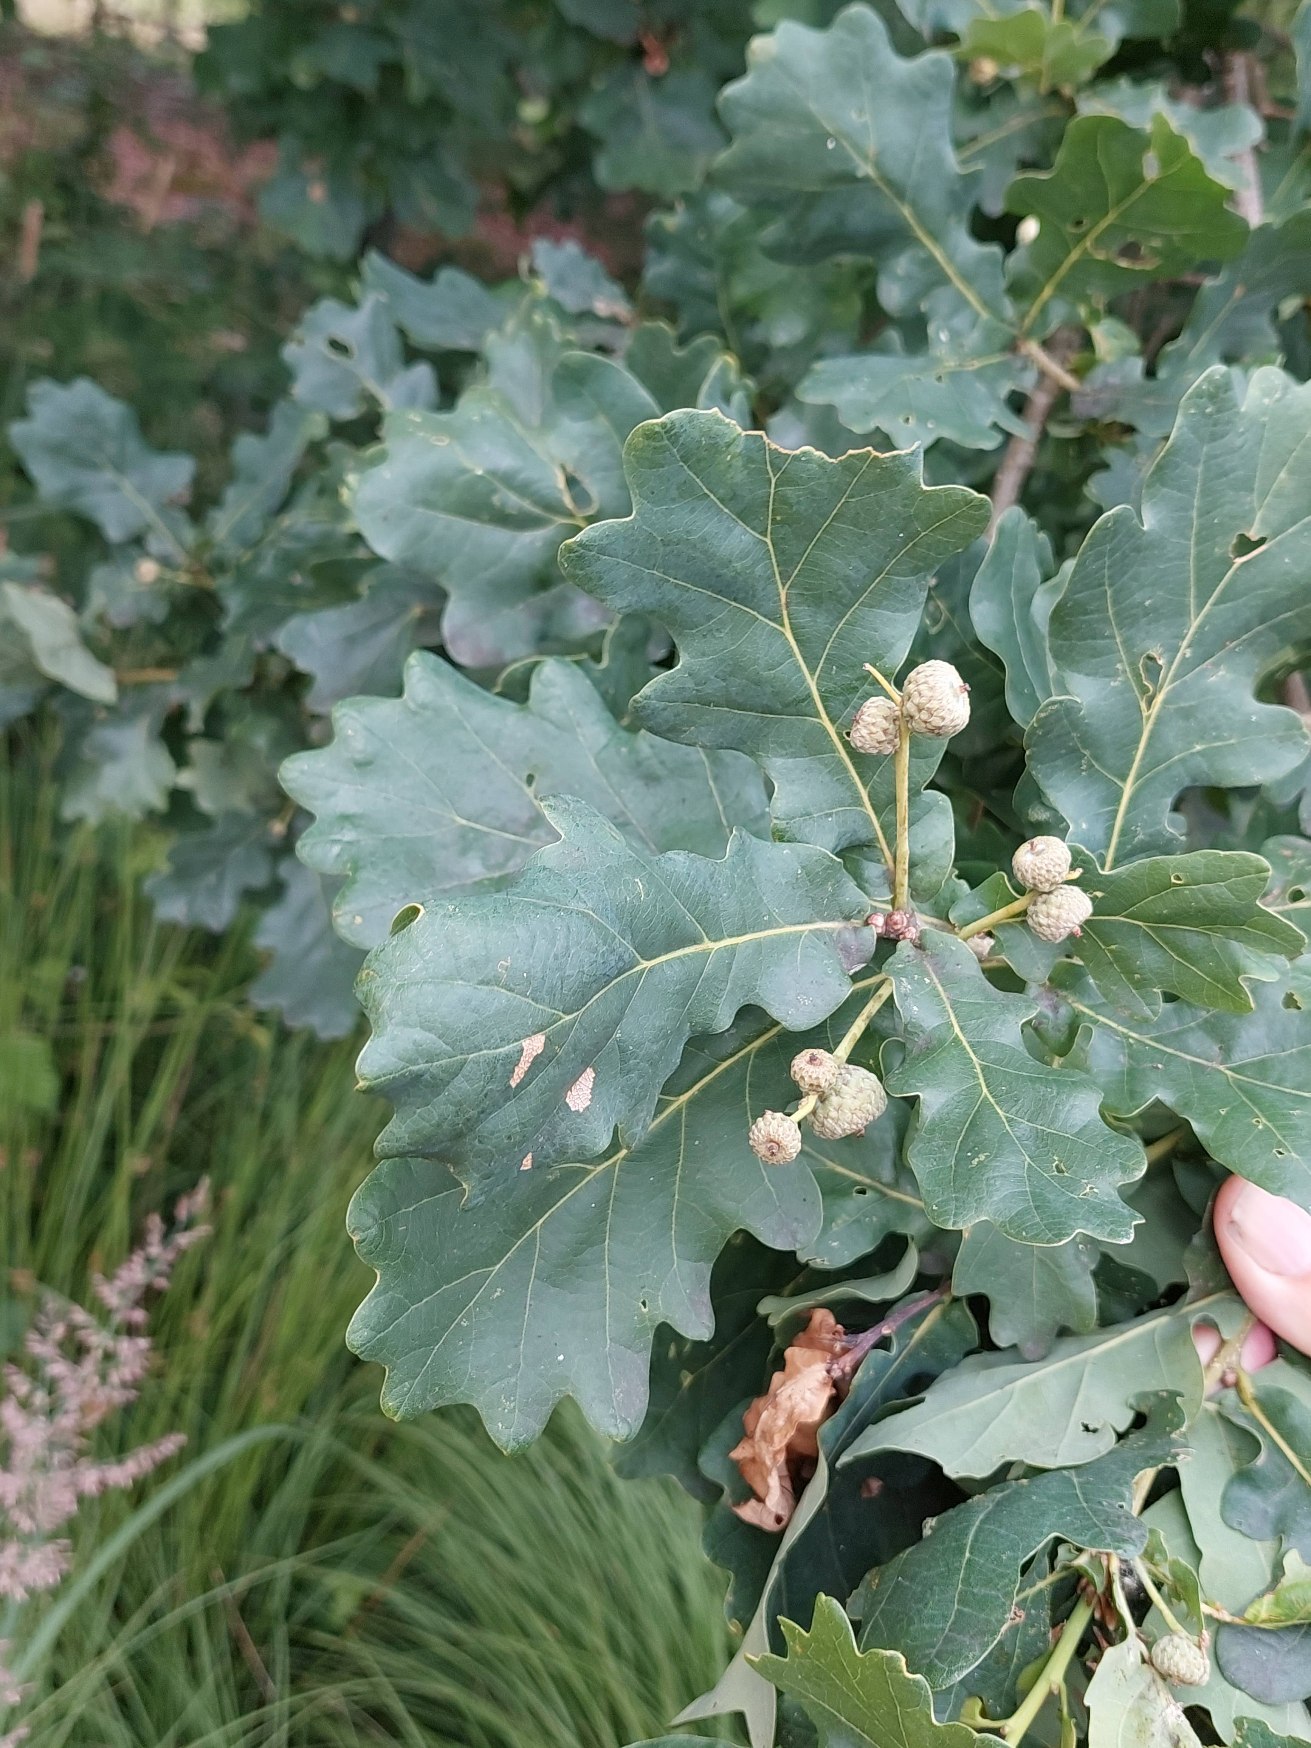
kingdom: Plantae
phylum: Tracheophyta
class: Magnoliopsida
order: Fagales
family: Fagaceae
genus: Quercus
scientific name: Quercus robur
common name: Stilk-eg/almindelig eg
